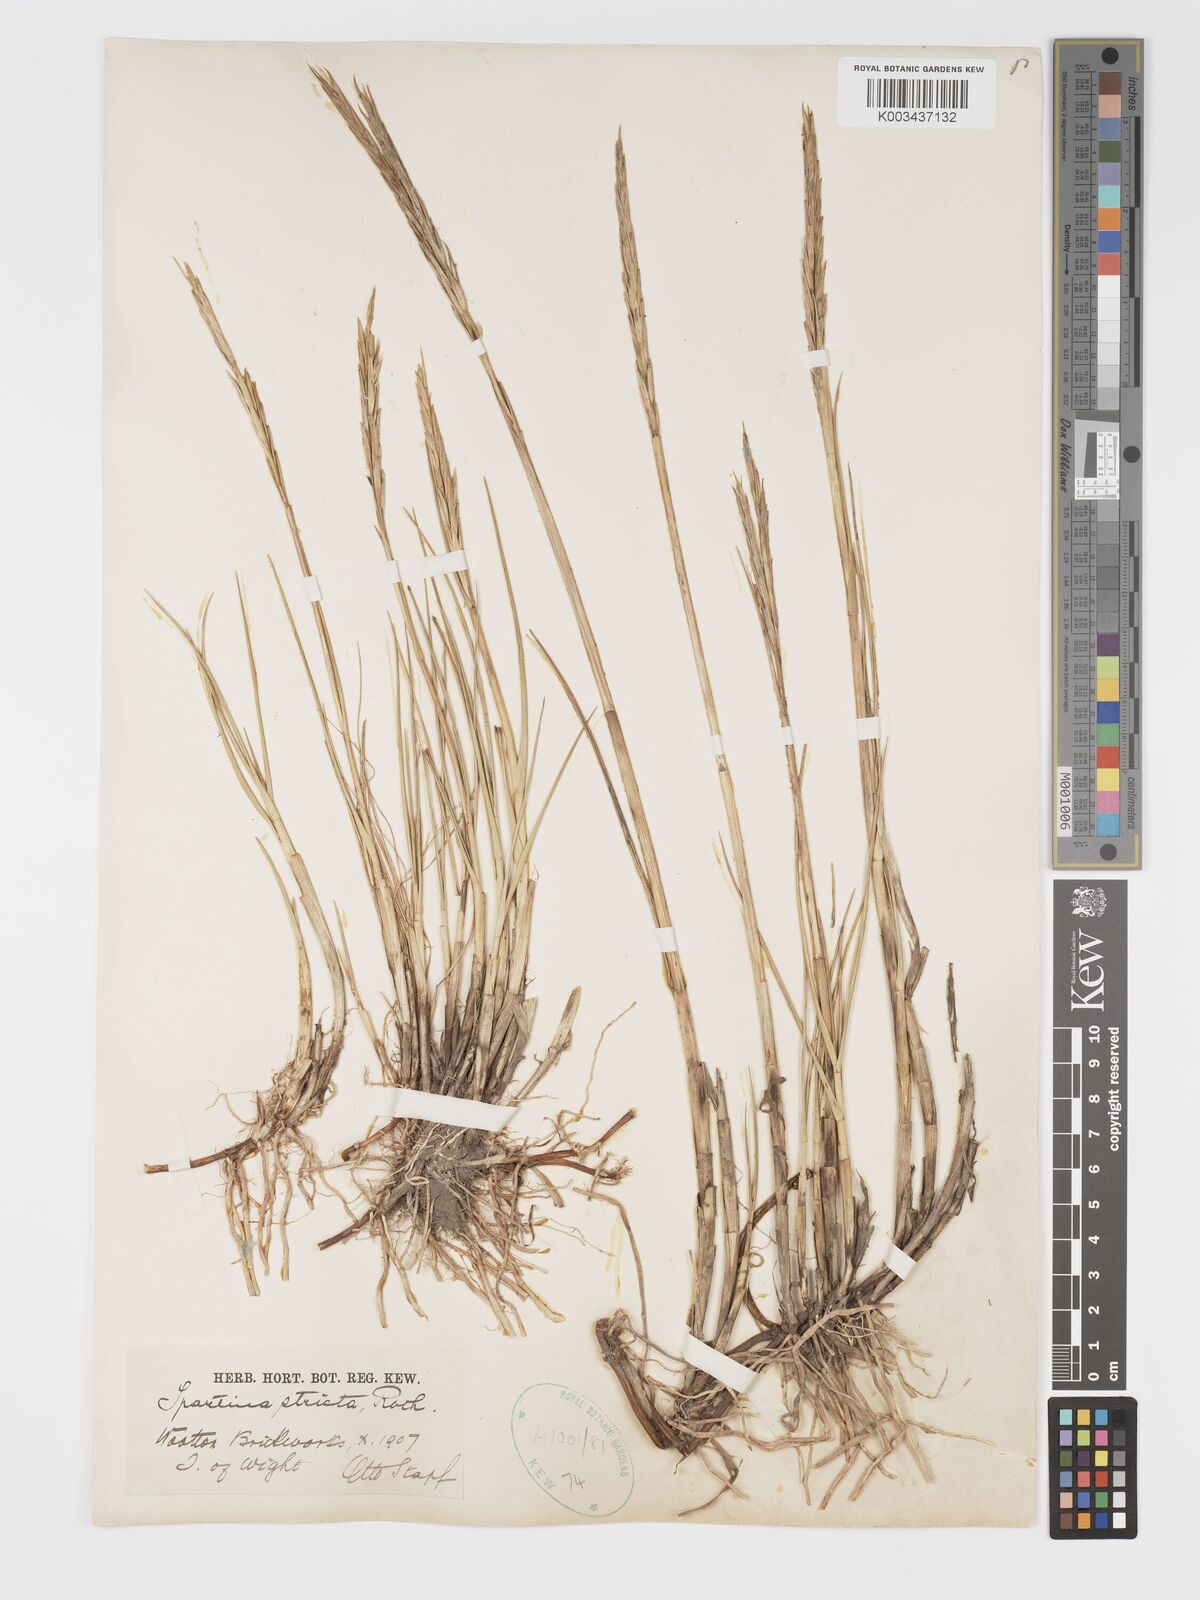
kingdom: Plantae
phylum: Tracheophyta
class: Liliopsida
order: Poales
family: Poaceae
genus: Sporobolus
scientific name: Sporobolus maritimus
